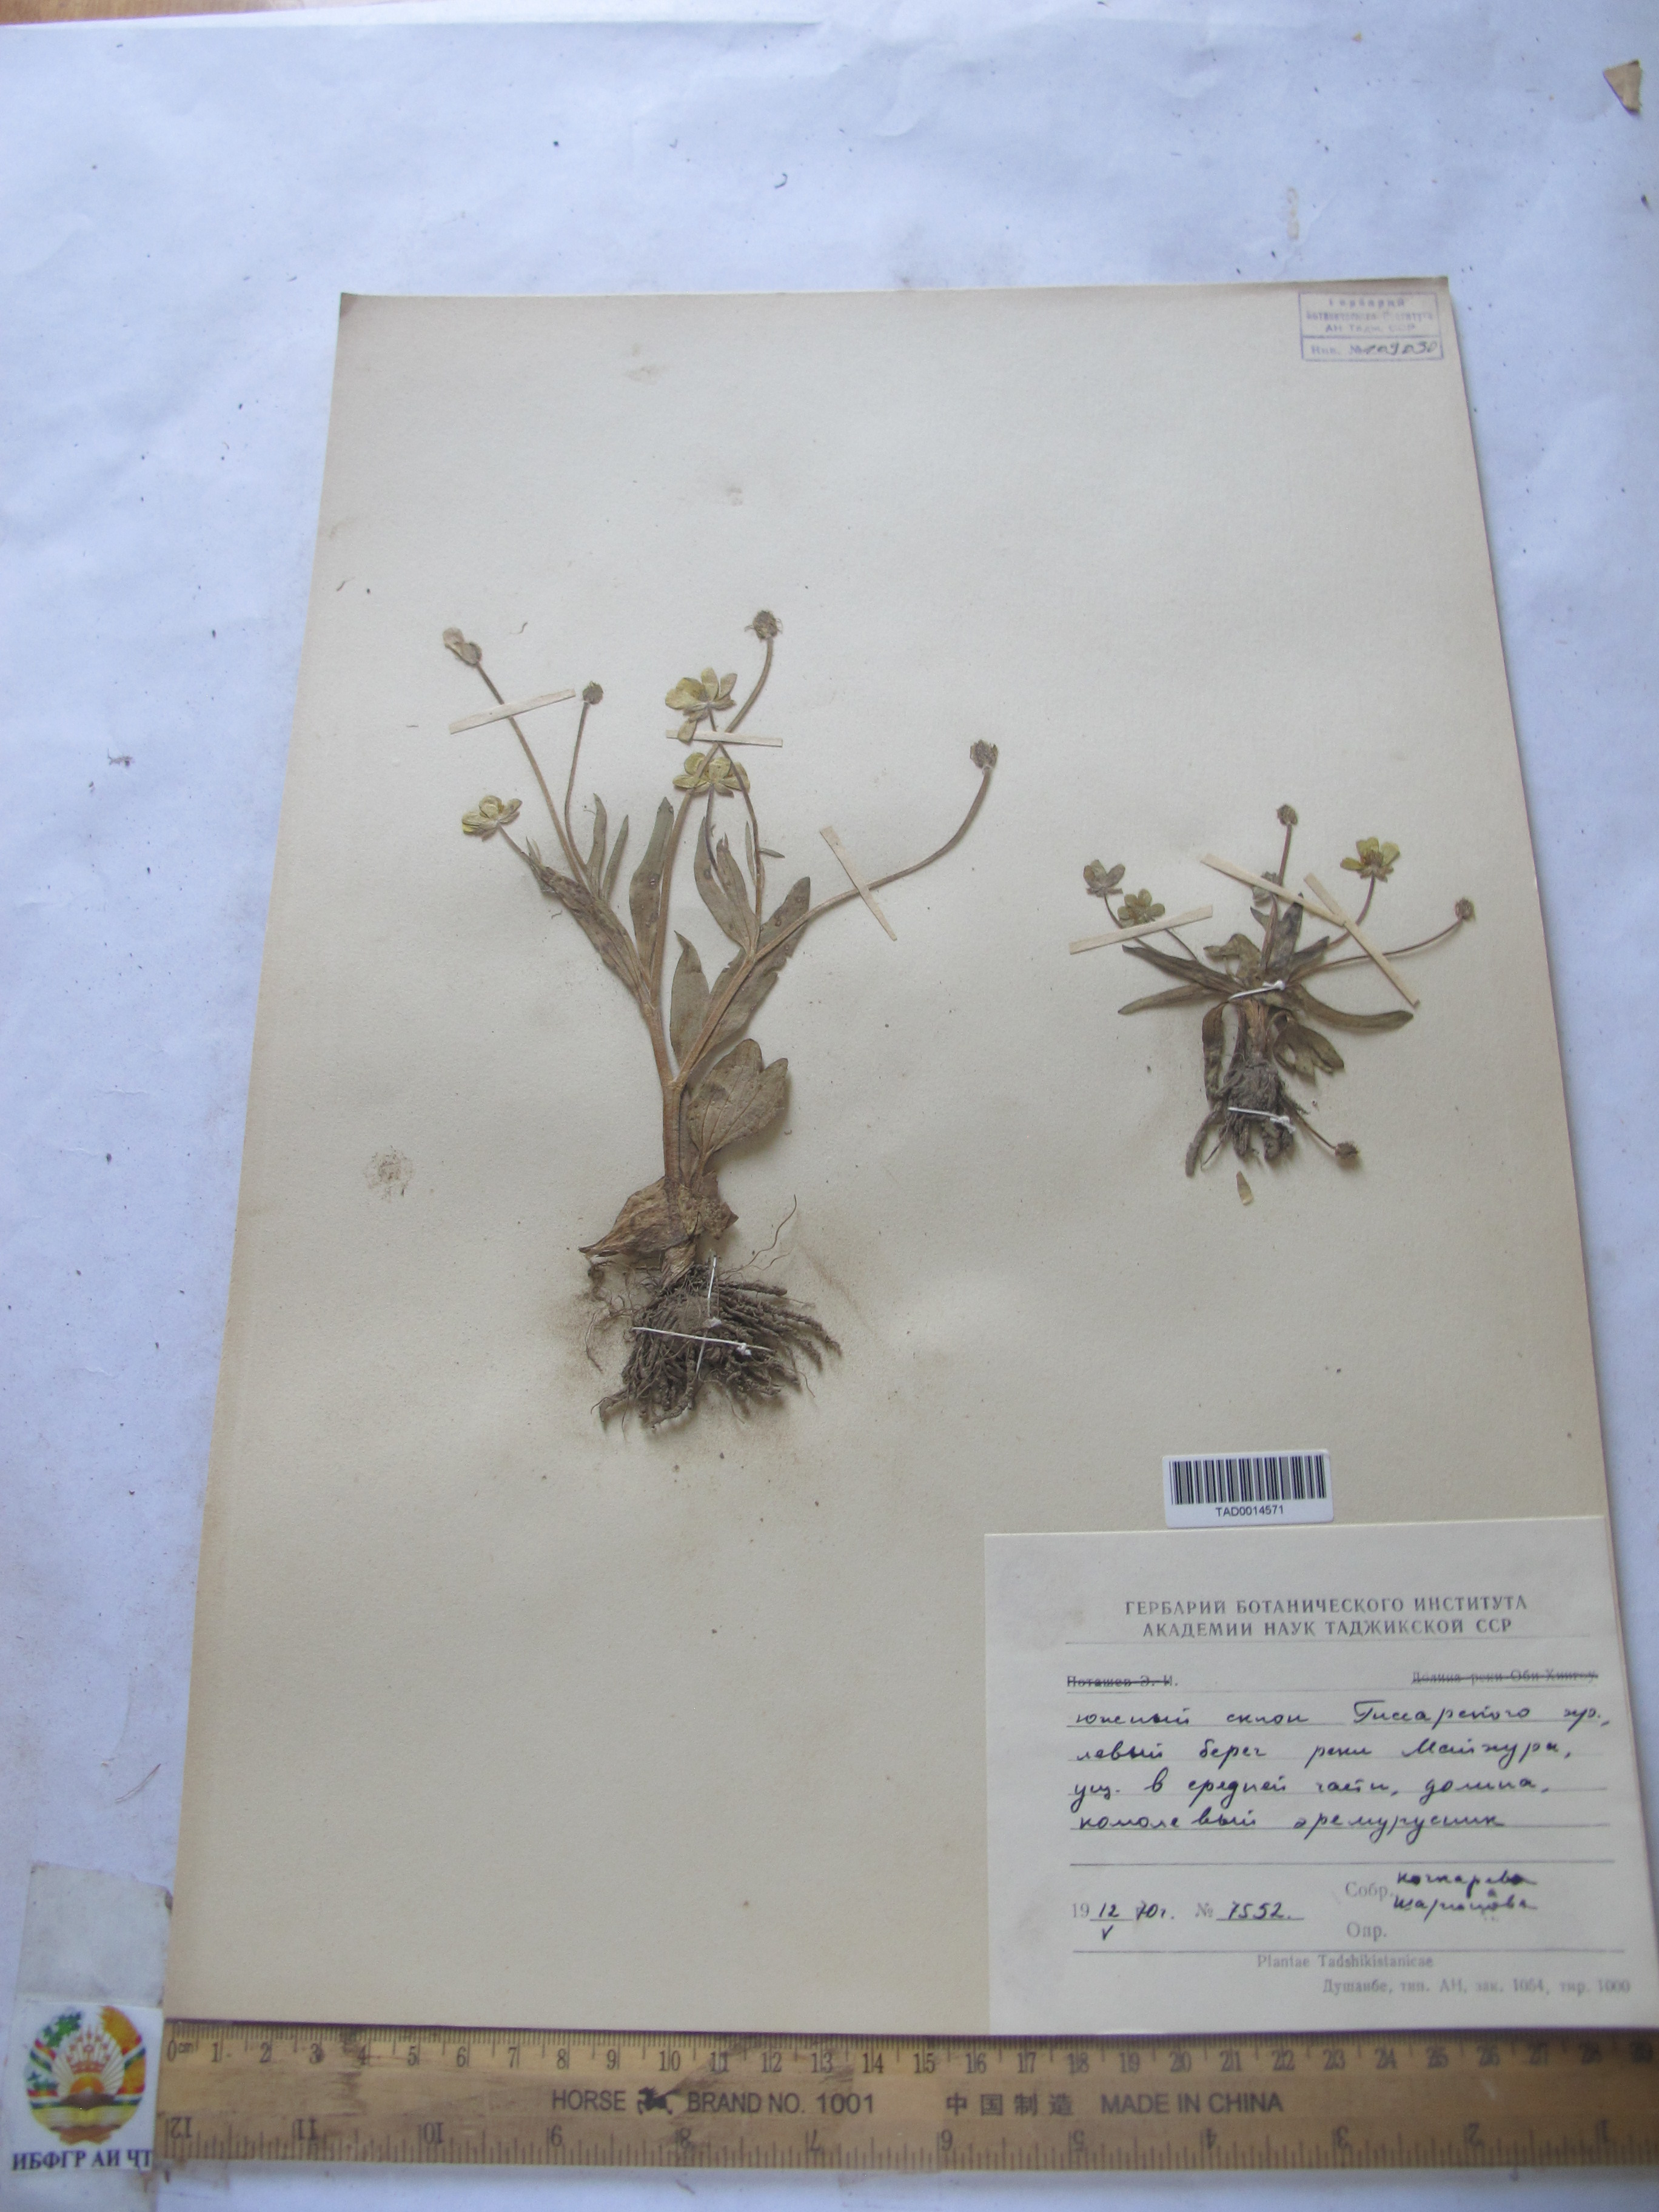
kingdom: Plantae
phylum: Tracheophyta
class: Magnoliopsida
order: Ranunculales
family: Ranunculaceae
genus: Ranunculus
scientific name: Ranunculus paucidentatus
